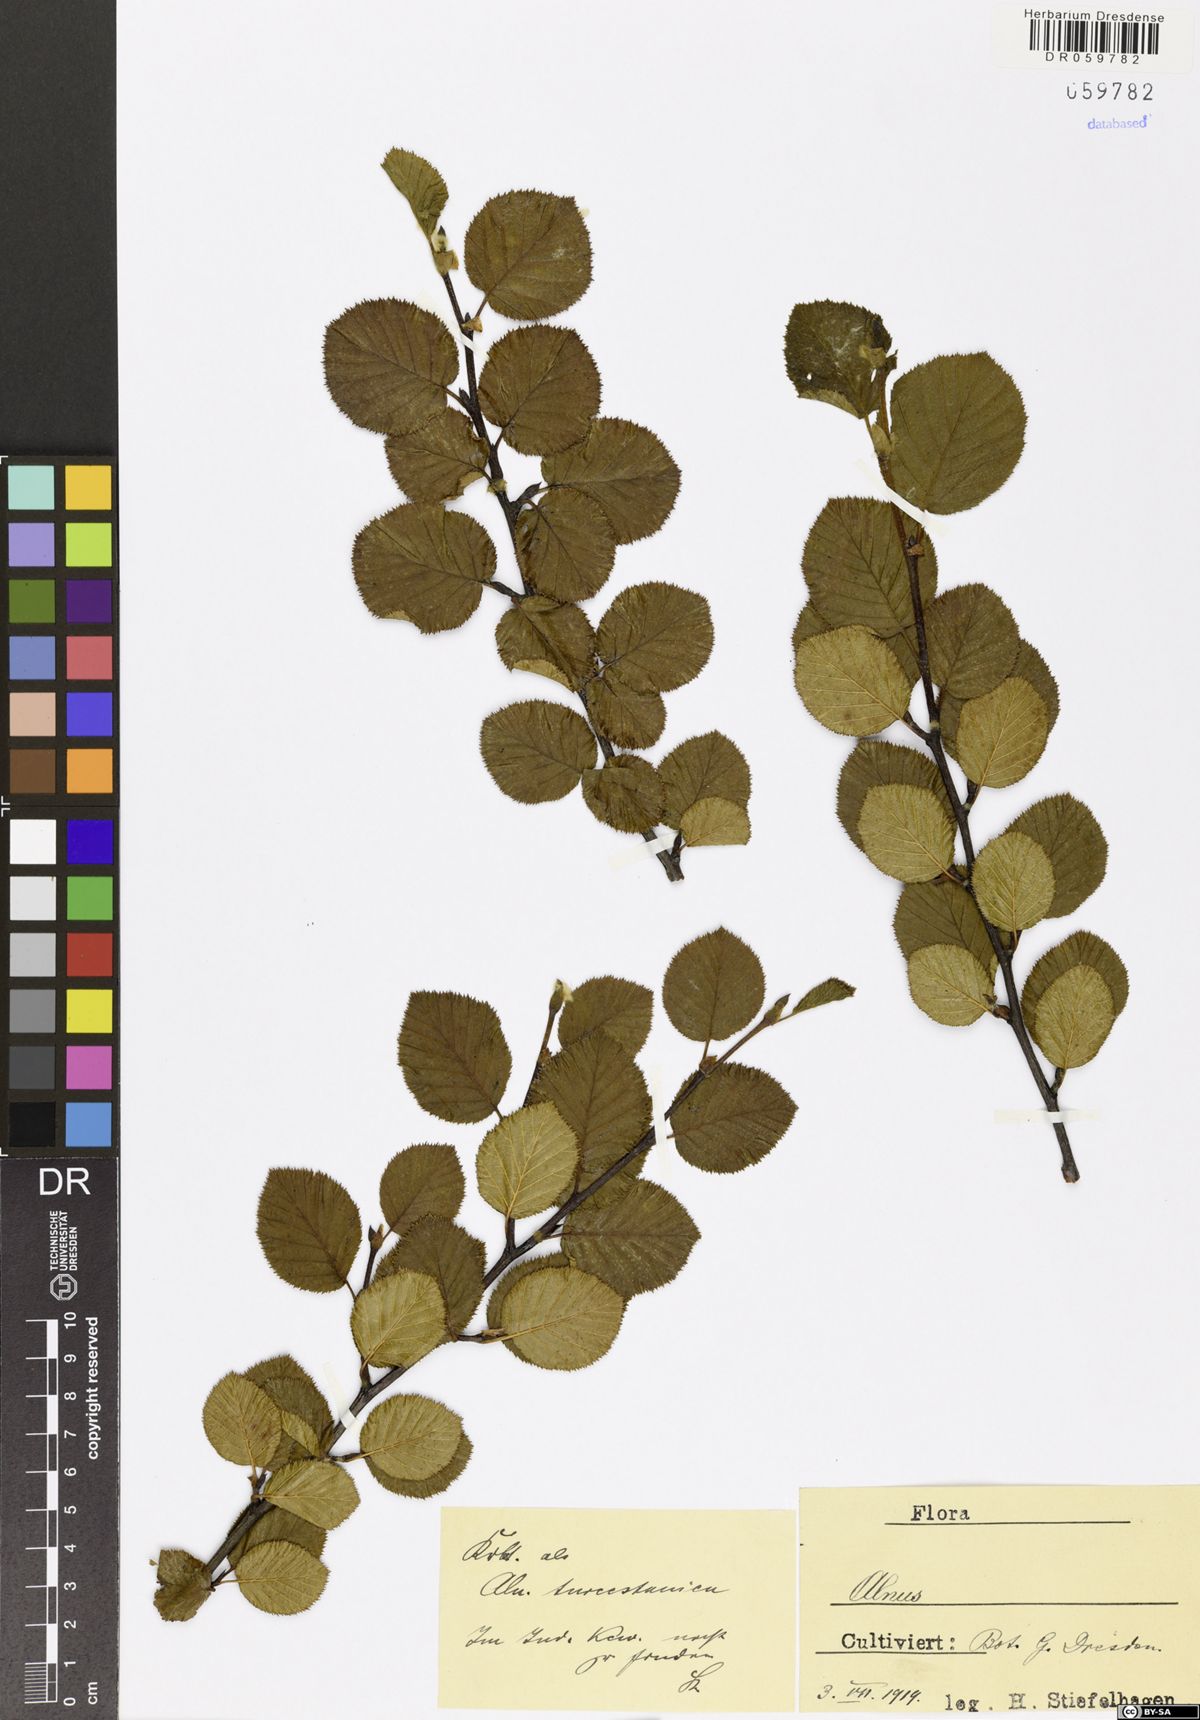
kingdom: Plantae
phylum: Tracheophyta
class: Magnoliopsida
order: Fagales
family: Betulaceae
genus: Alnus
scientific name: Alnus
